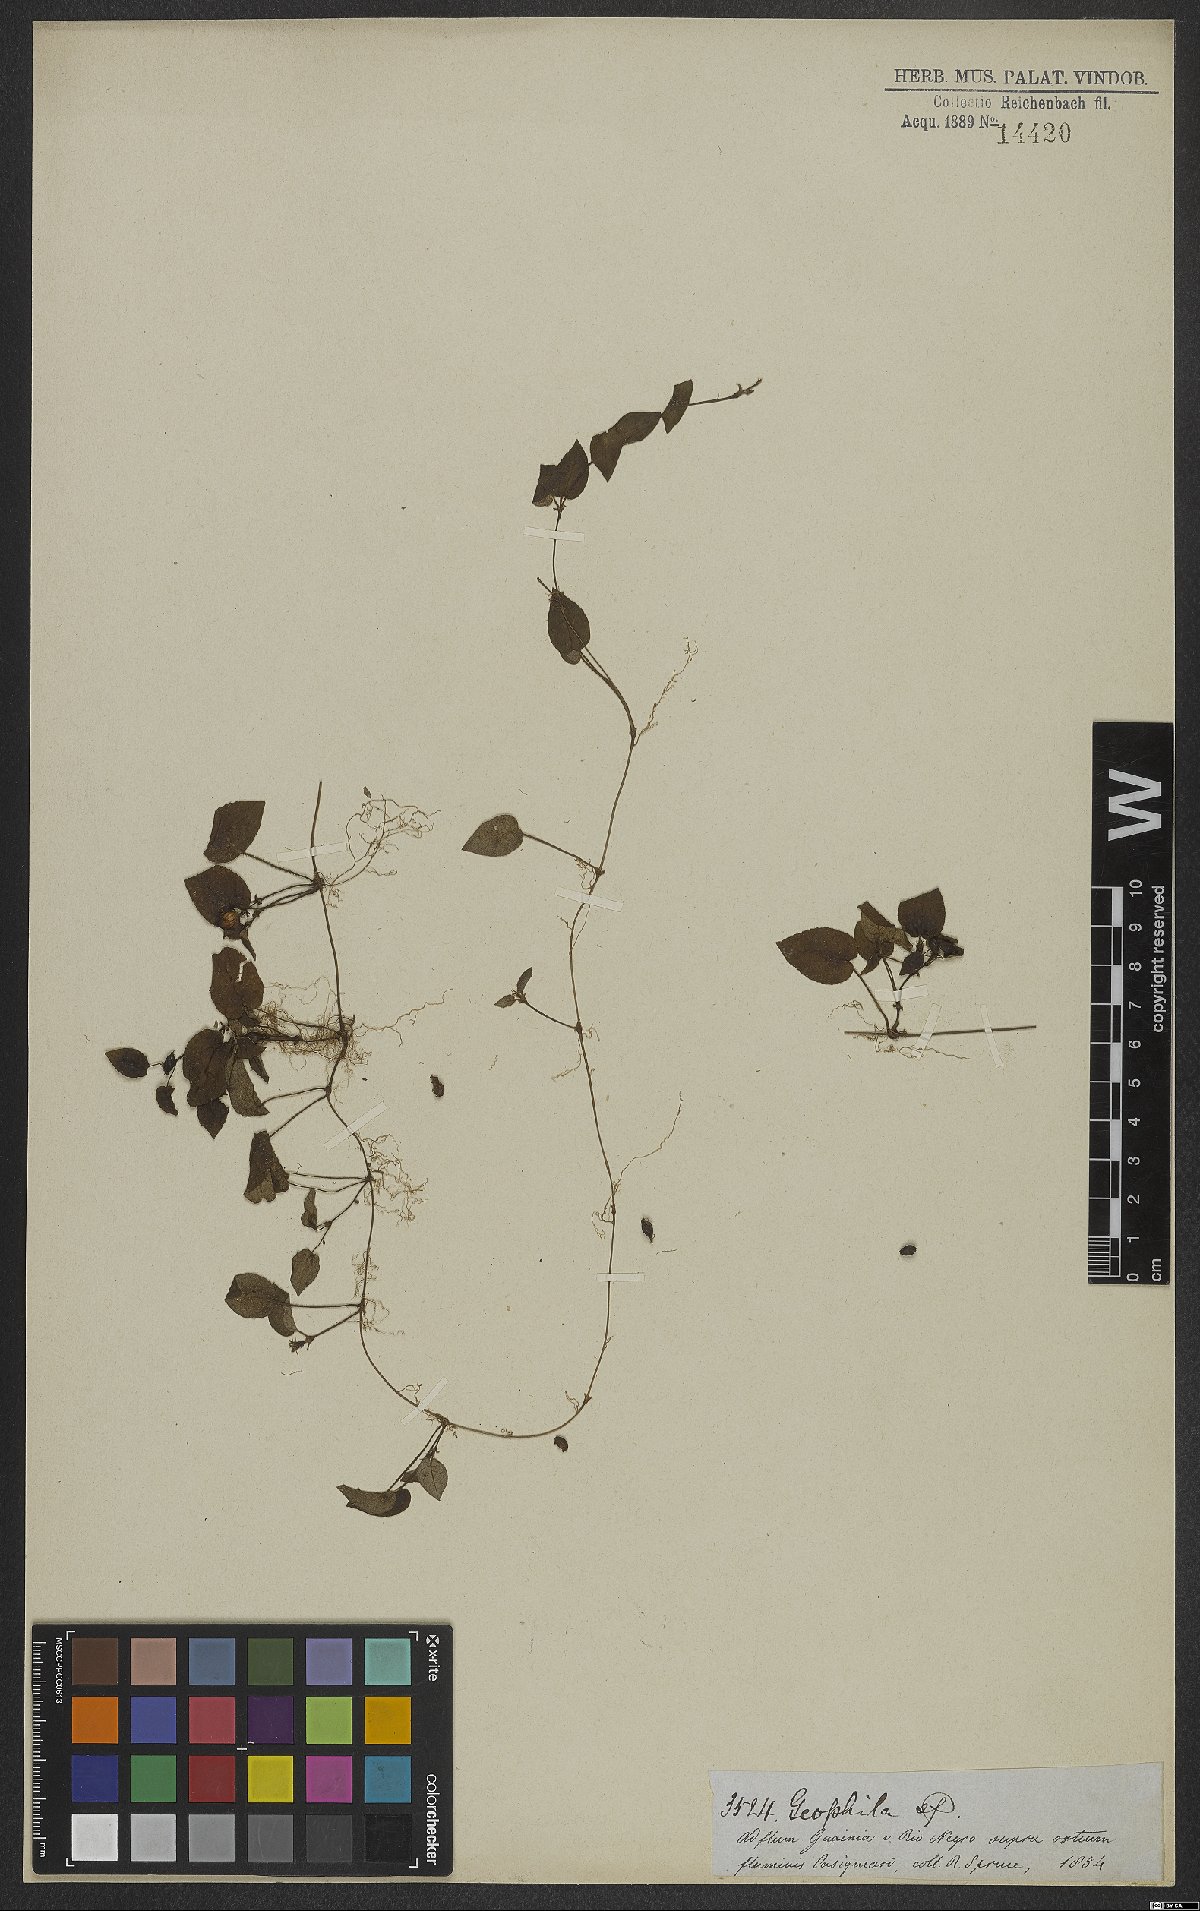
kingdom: Plantae
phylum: Tracheophyta
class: Magnoliopsida
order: Gentianales
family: Rubiaceae
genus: Geophila
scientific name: Geophila repens
